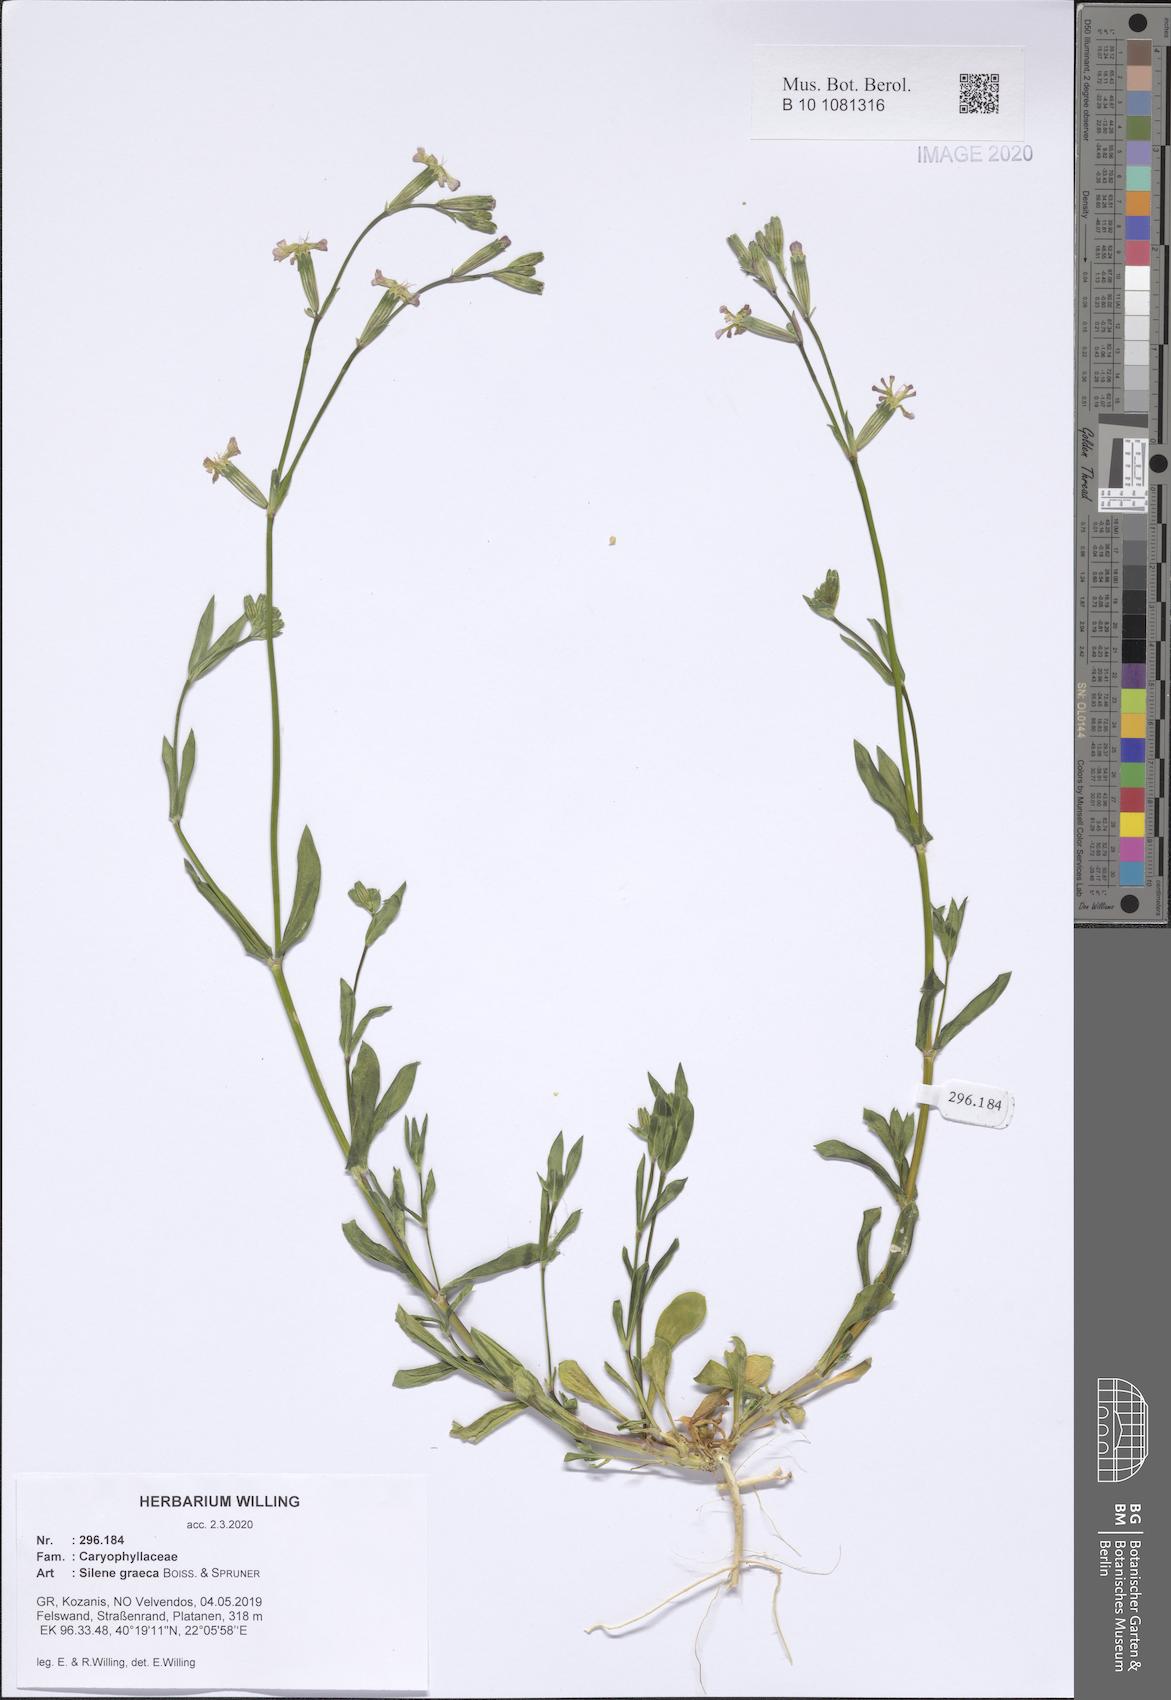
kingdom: Plantae
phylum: Tracheophyta
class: Magnoliopsida
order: Caryophyllales
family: Caryophyllaceae
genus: Silene
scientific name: Silene graeca
